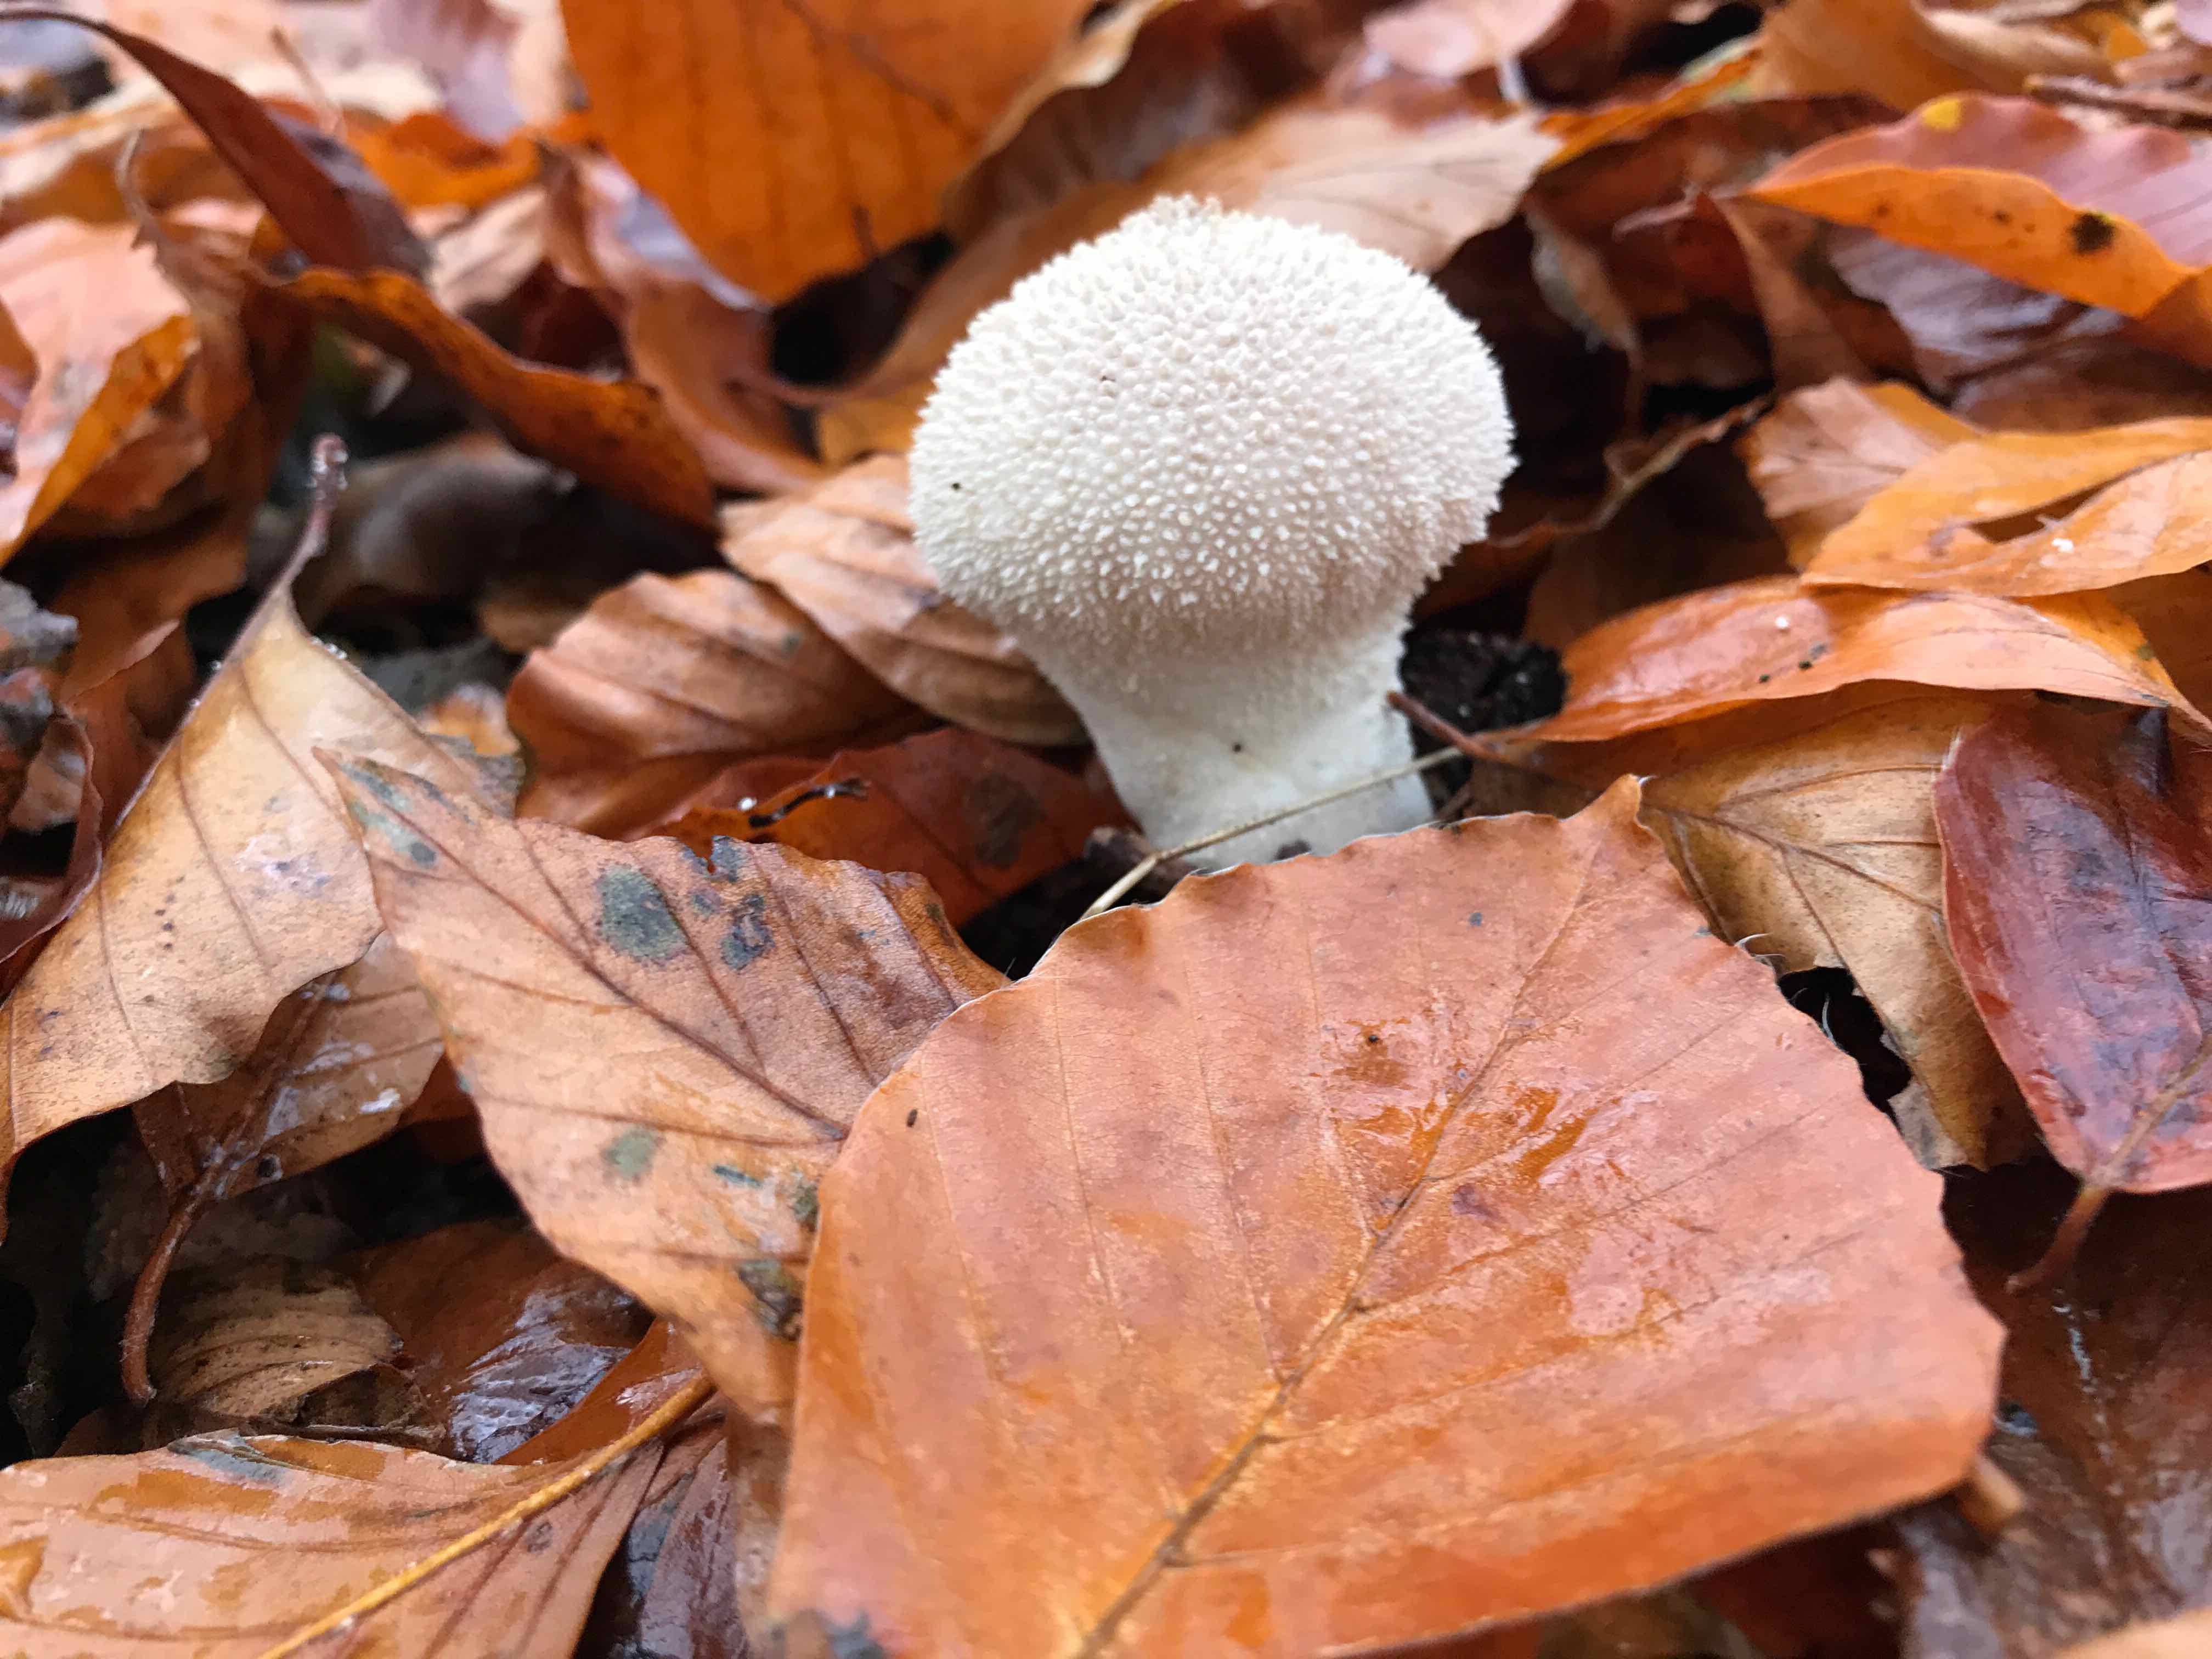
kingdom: Fungi
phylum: Basidiomycota
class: Agaricomycetes
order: Agaricales
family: Lycoperdaceae
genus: Lycoperdon
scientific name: Lycoperdon perlatum
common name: krystal-støvbold
